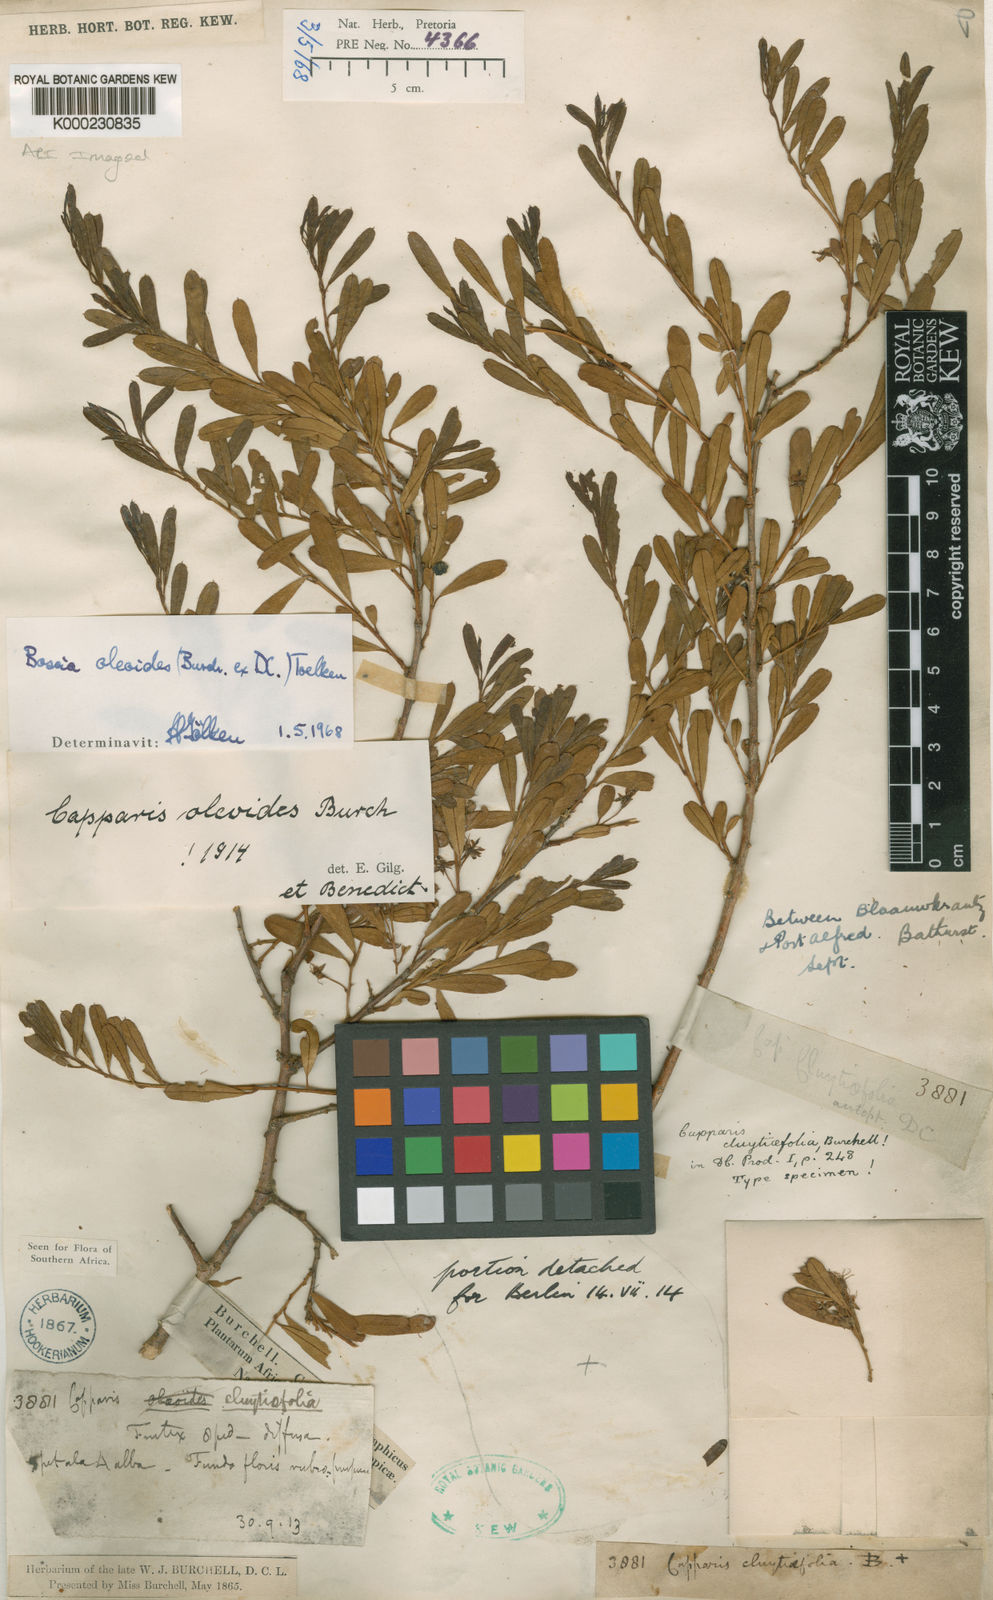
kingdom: Plantae
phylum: Tracheophyta
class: Magnoliopsida
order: Brassicales
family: Capparaceae
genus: Boscia
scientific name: Boscia oleoides
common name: Karoo shepherd tree
